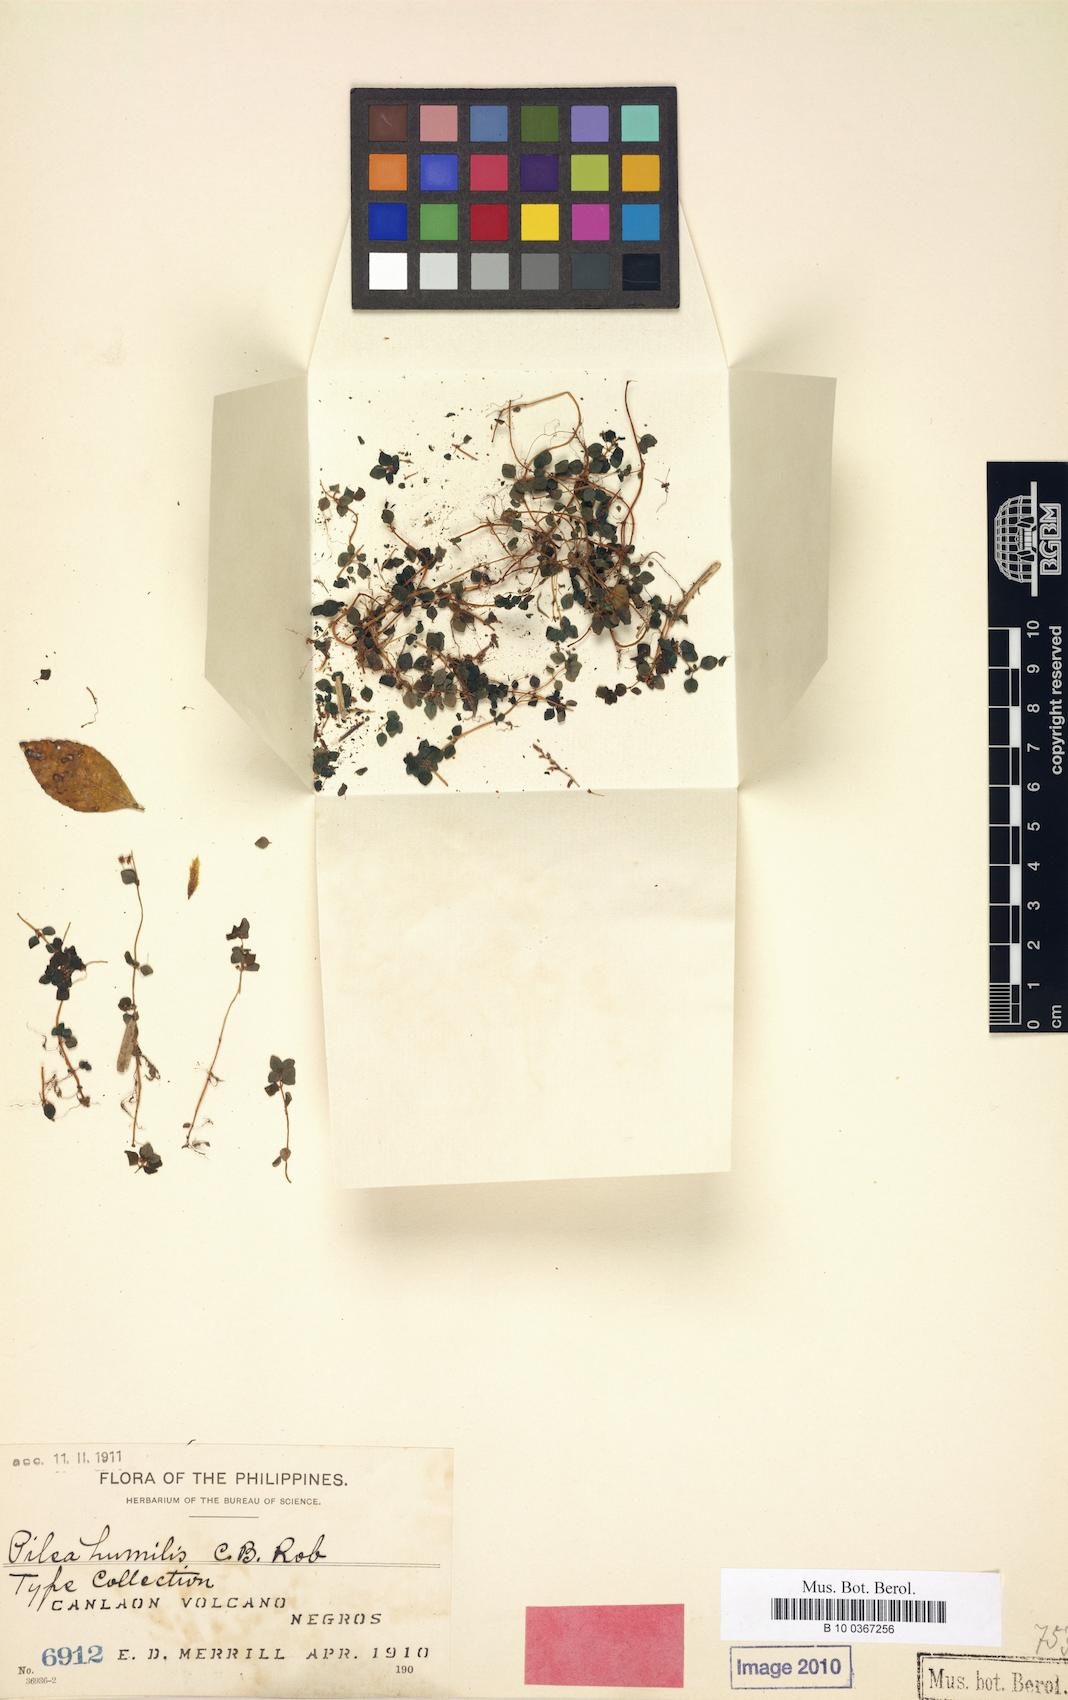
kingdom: Plantae
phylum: Tracheophyta
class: Magnoliopsida
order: Rosales
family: Urticaceae
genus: Pilea
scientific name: Pilea humilis
